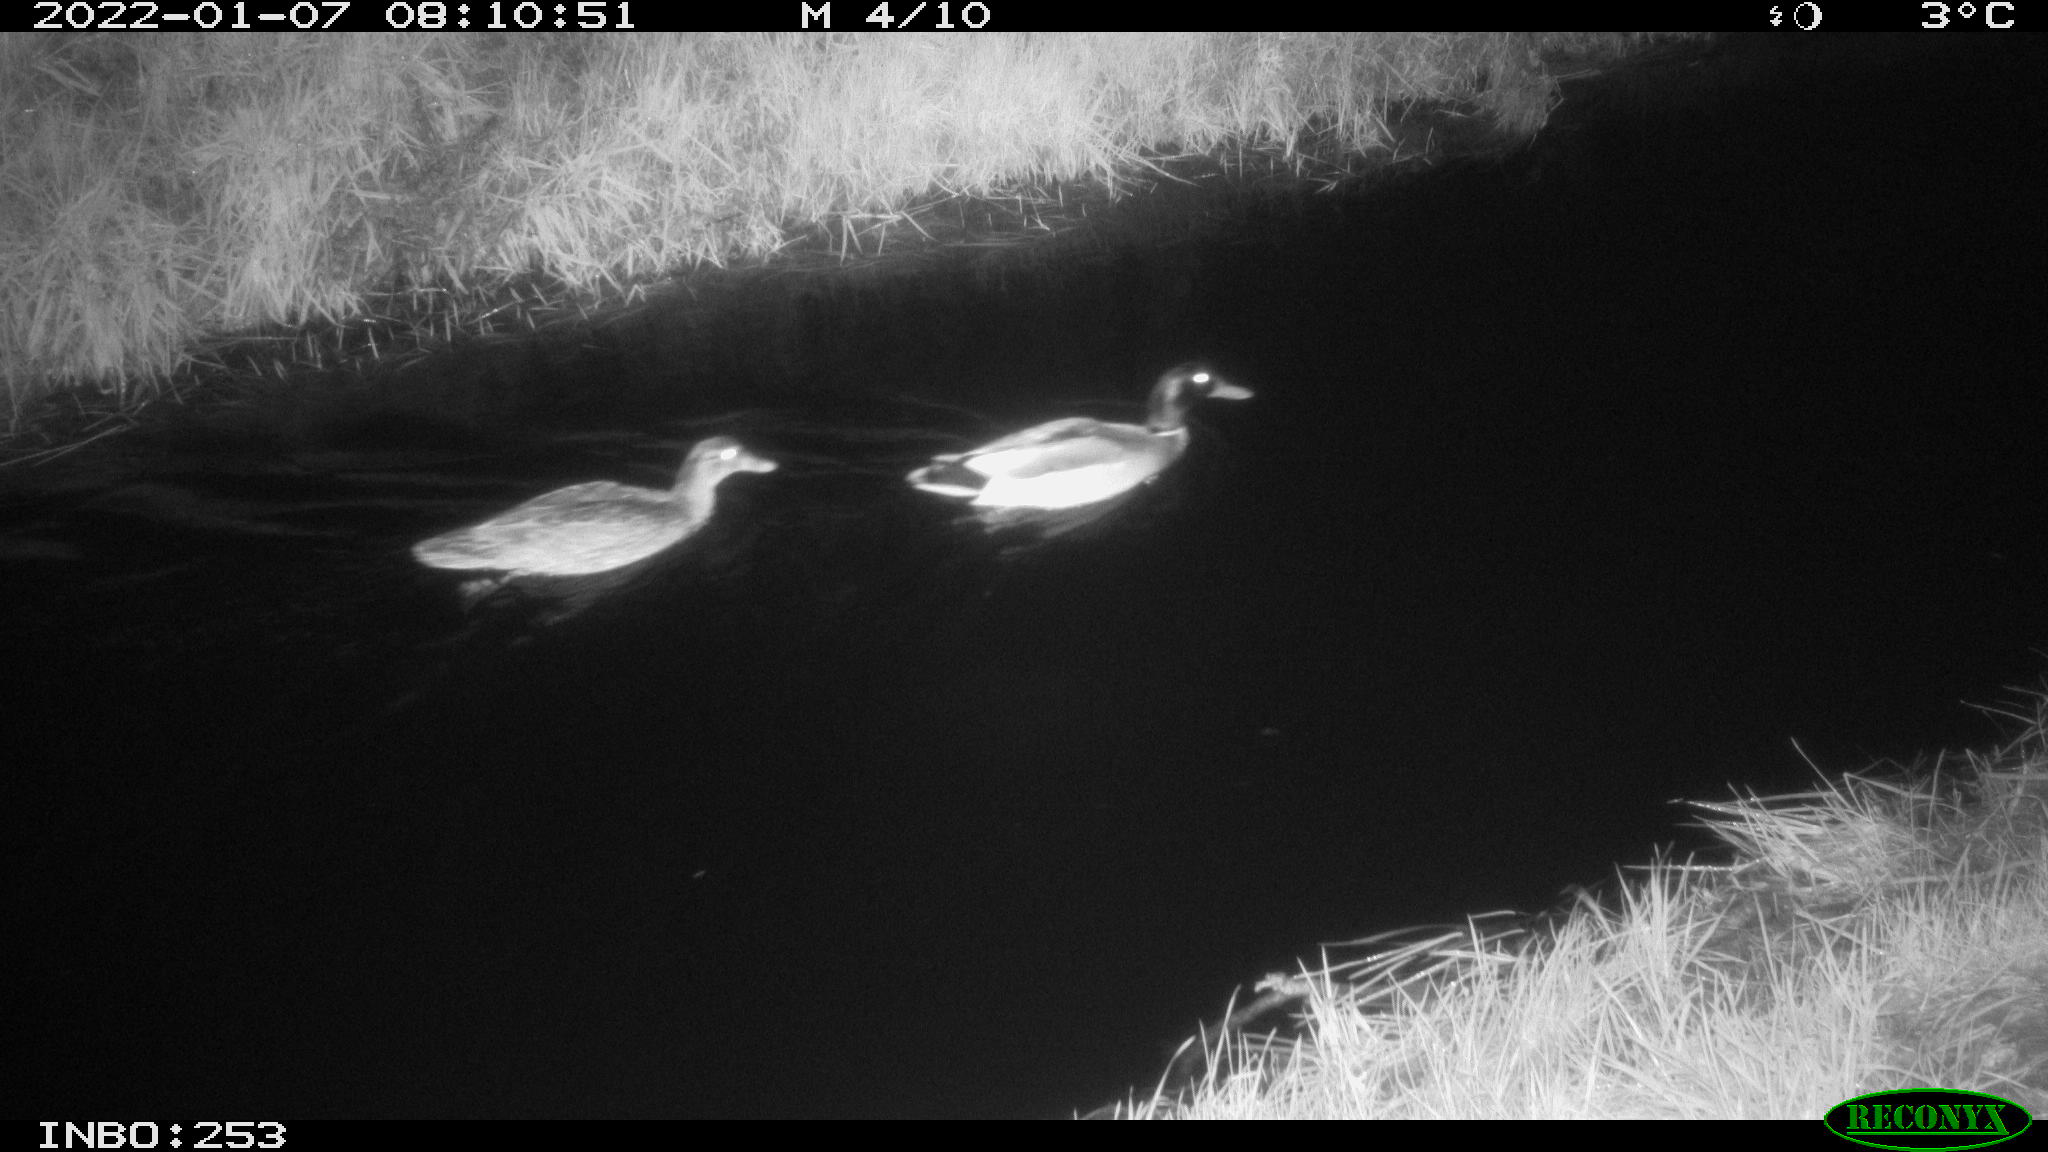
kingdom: Animalia
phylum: Chordata
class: Aves
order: Anseriformes
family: Anatidae
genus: Anas
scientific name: Anas
